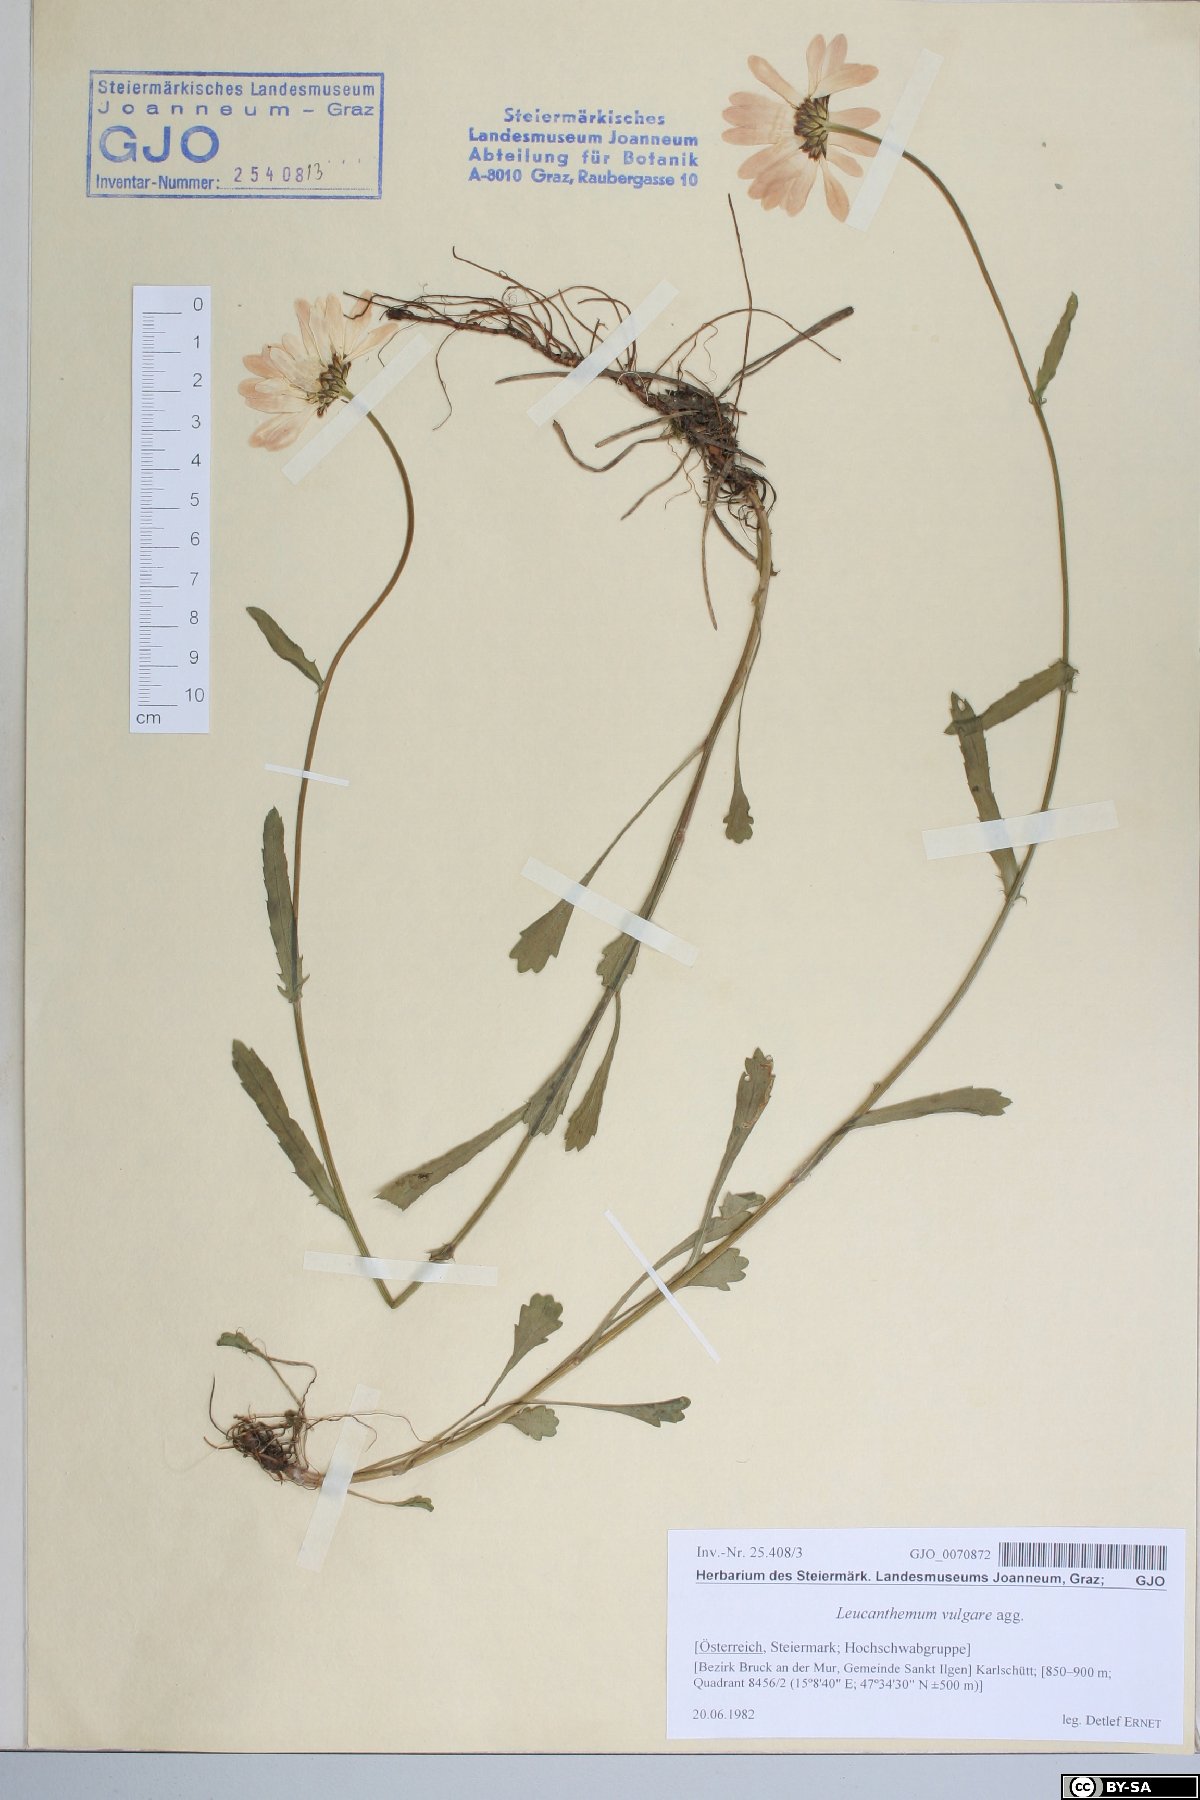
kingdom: Plantae
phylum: Tracheophyta
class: Magnoliopsida
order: Asterales
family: Asteraceae
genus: Leucanthemum
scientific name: Leucanthemum vulgare
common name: Oxeye daisy
